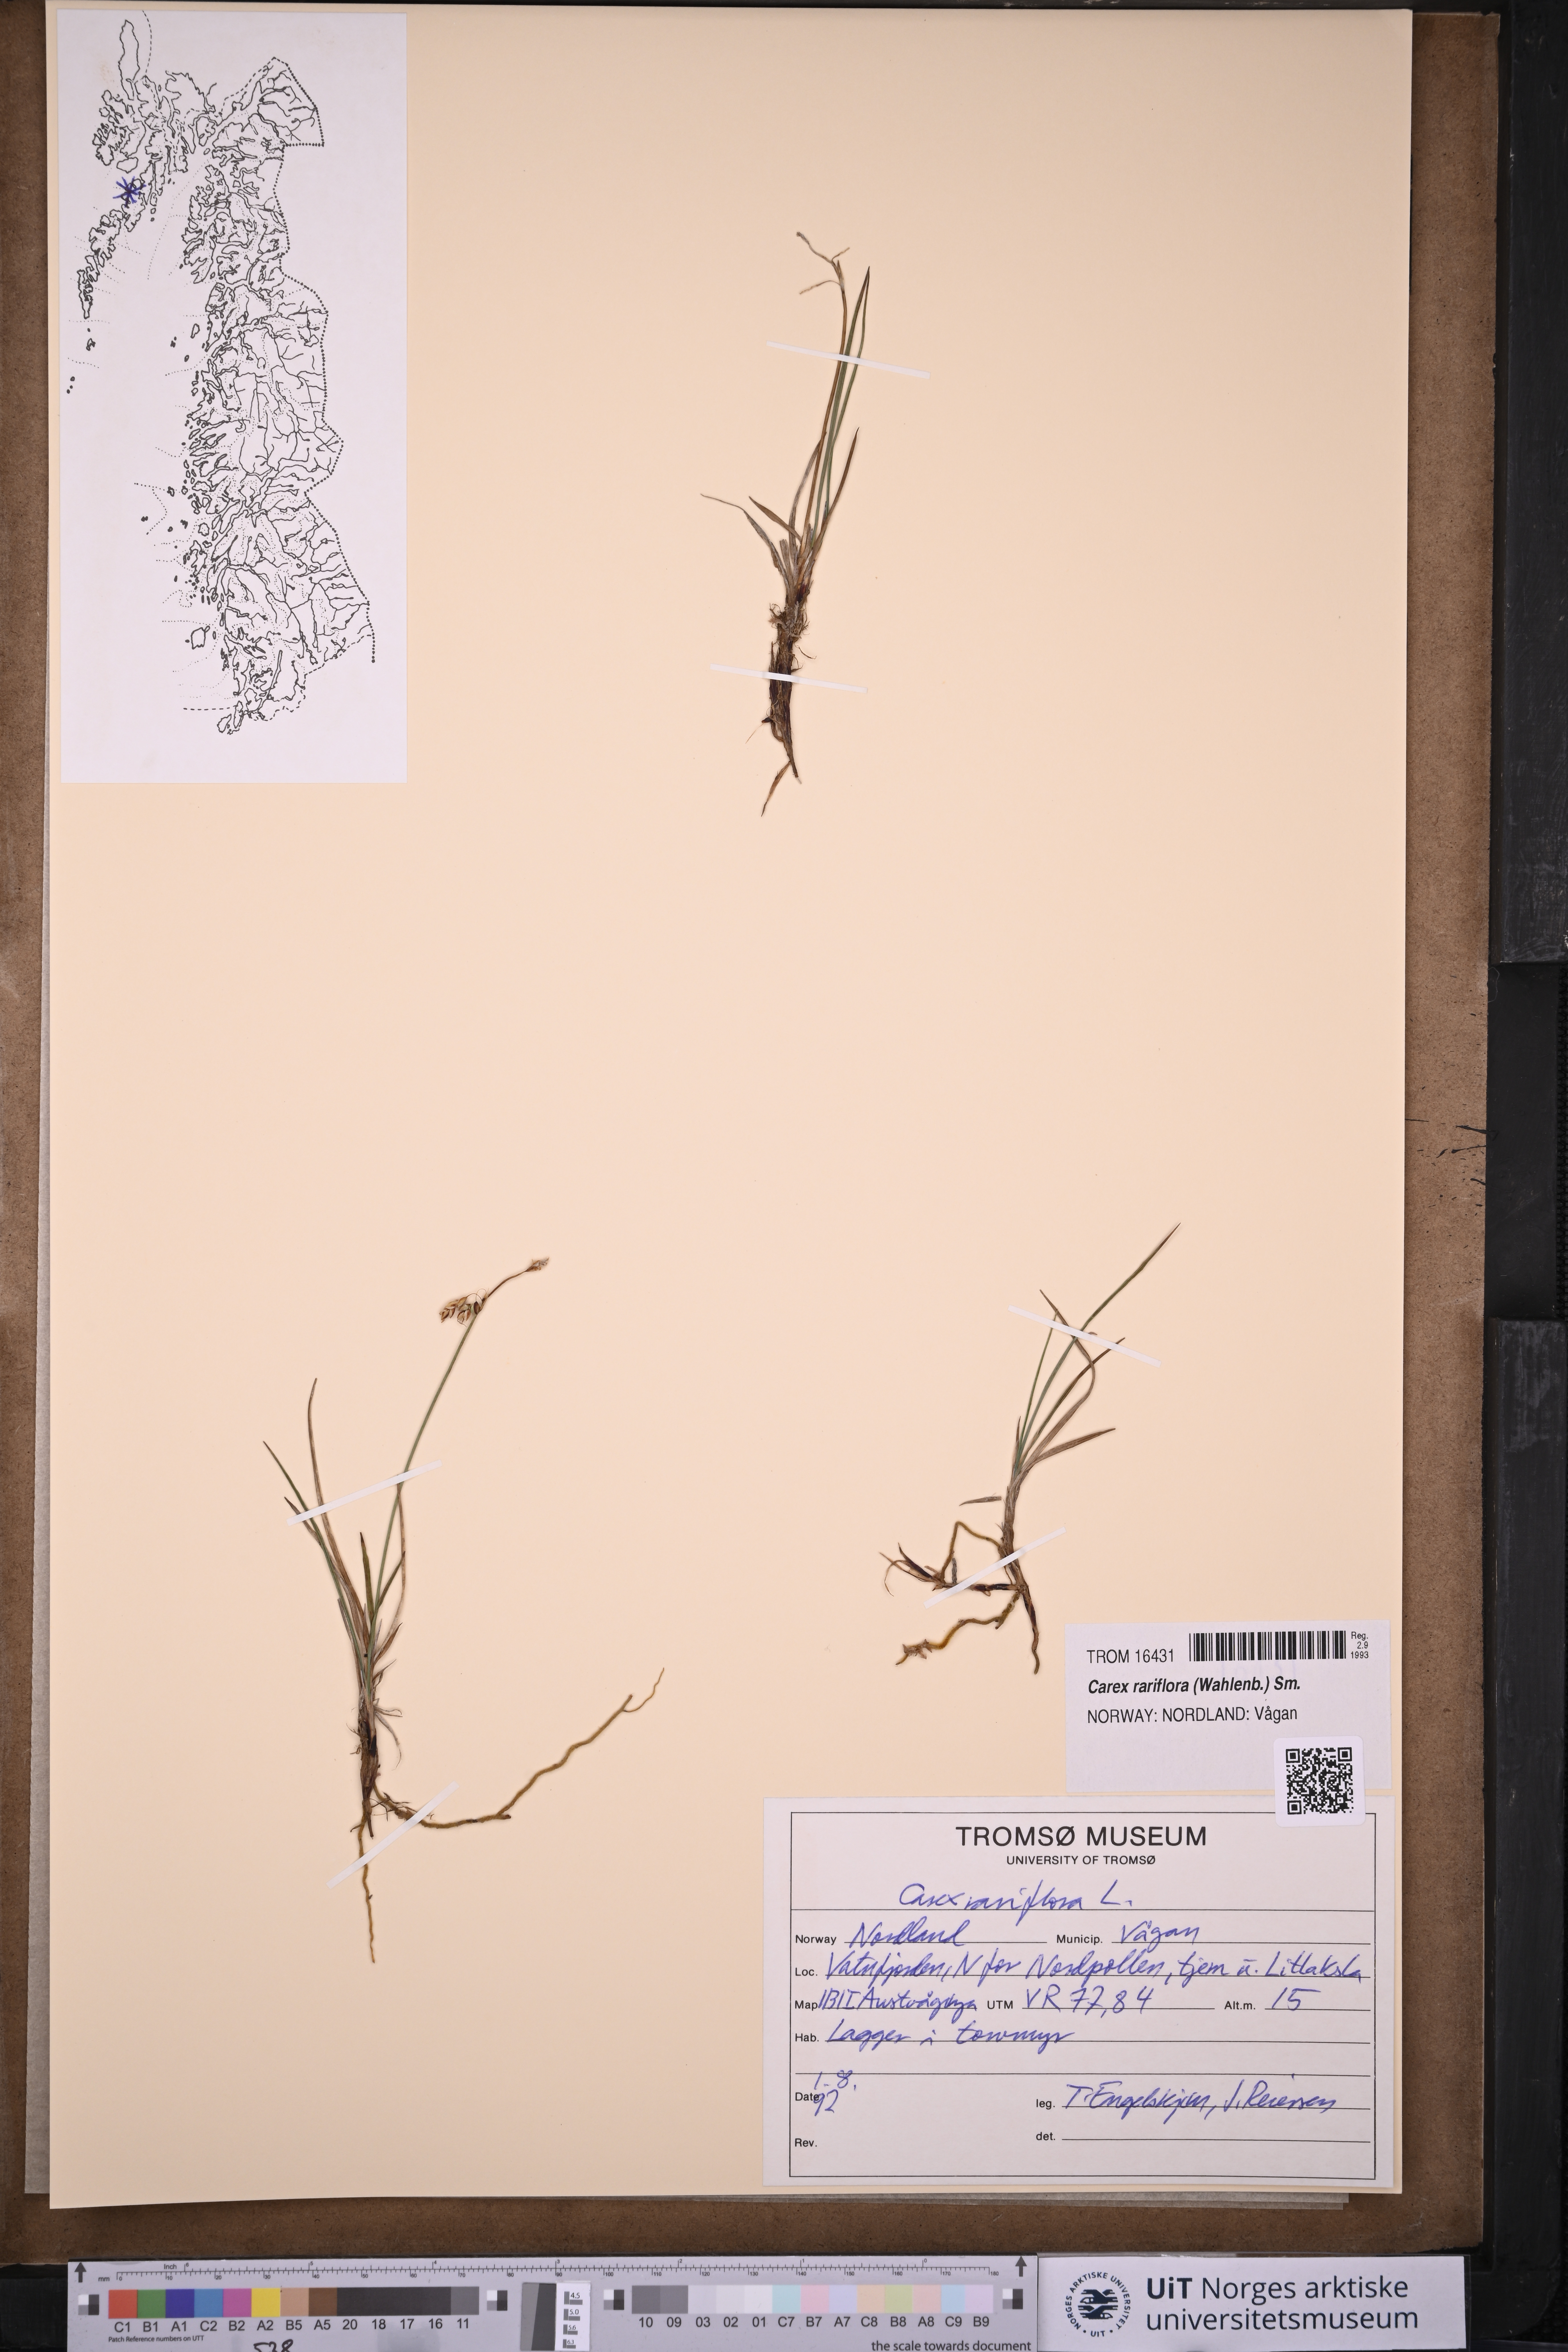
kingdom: Plantae
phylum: Tracheophyta
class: Liliopsida
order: Poales
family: Cyperaceae
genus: Carex
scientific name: Carex rariflora
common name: Loose-flowered alpine sedge
